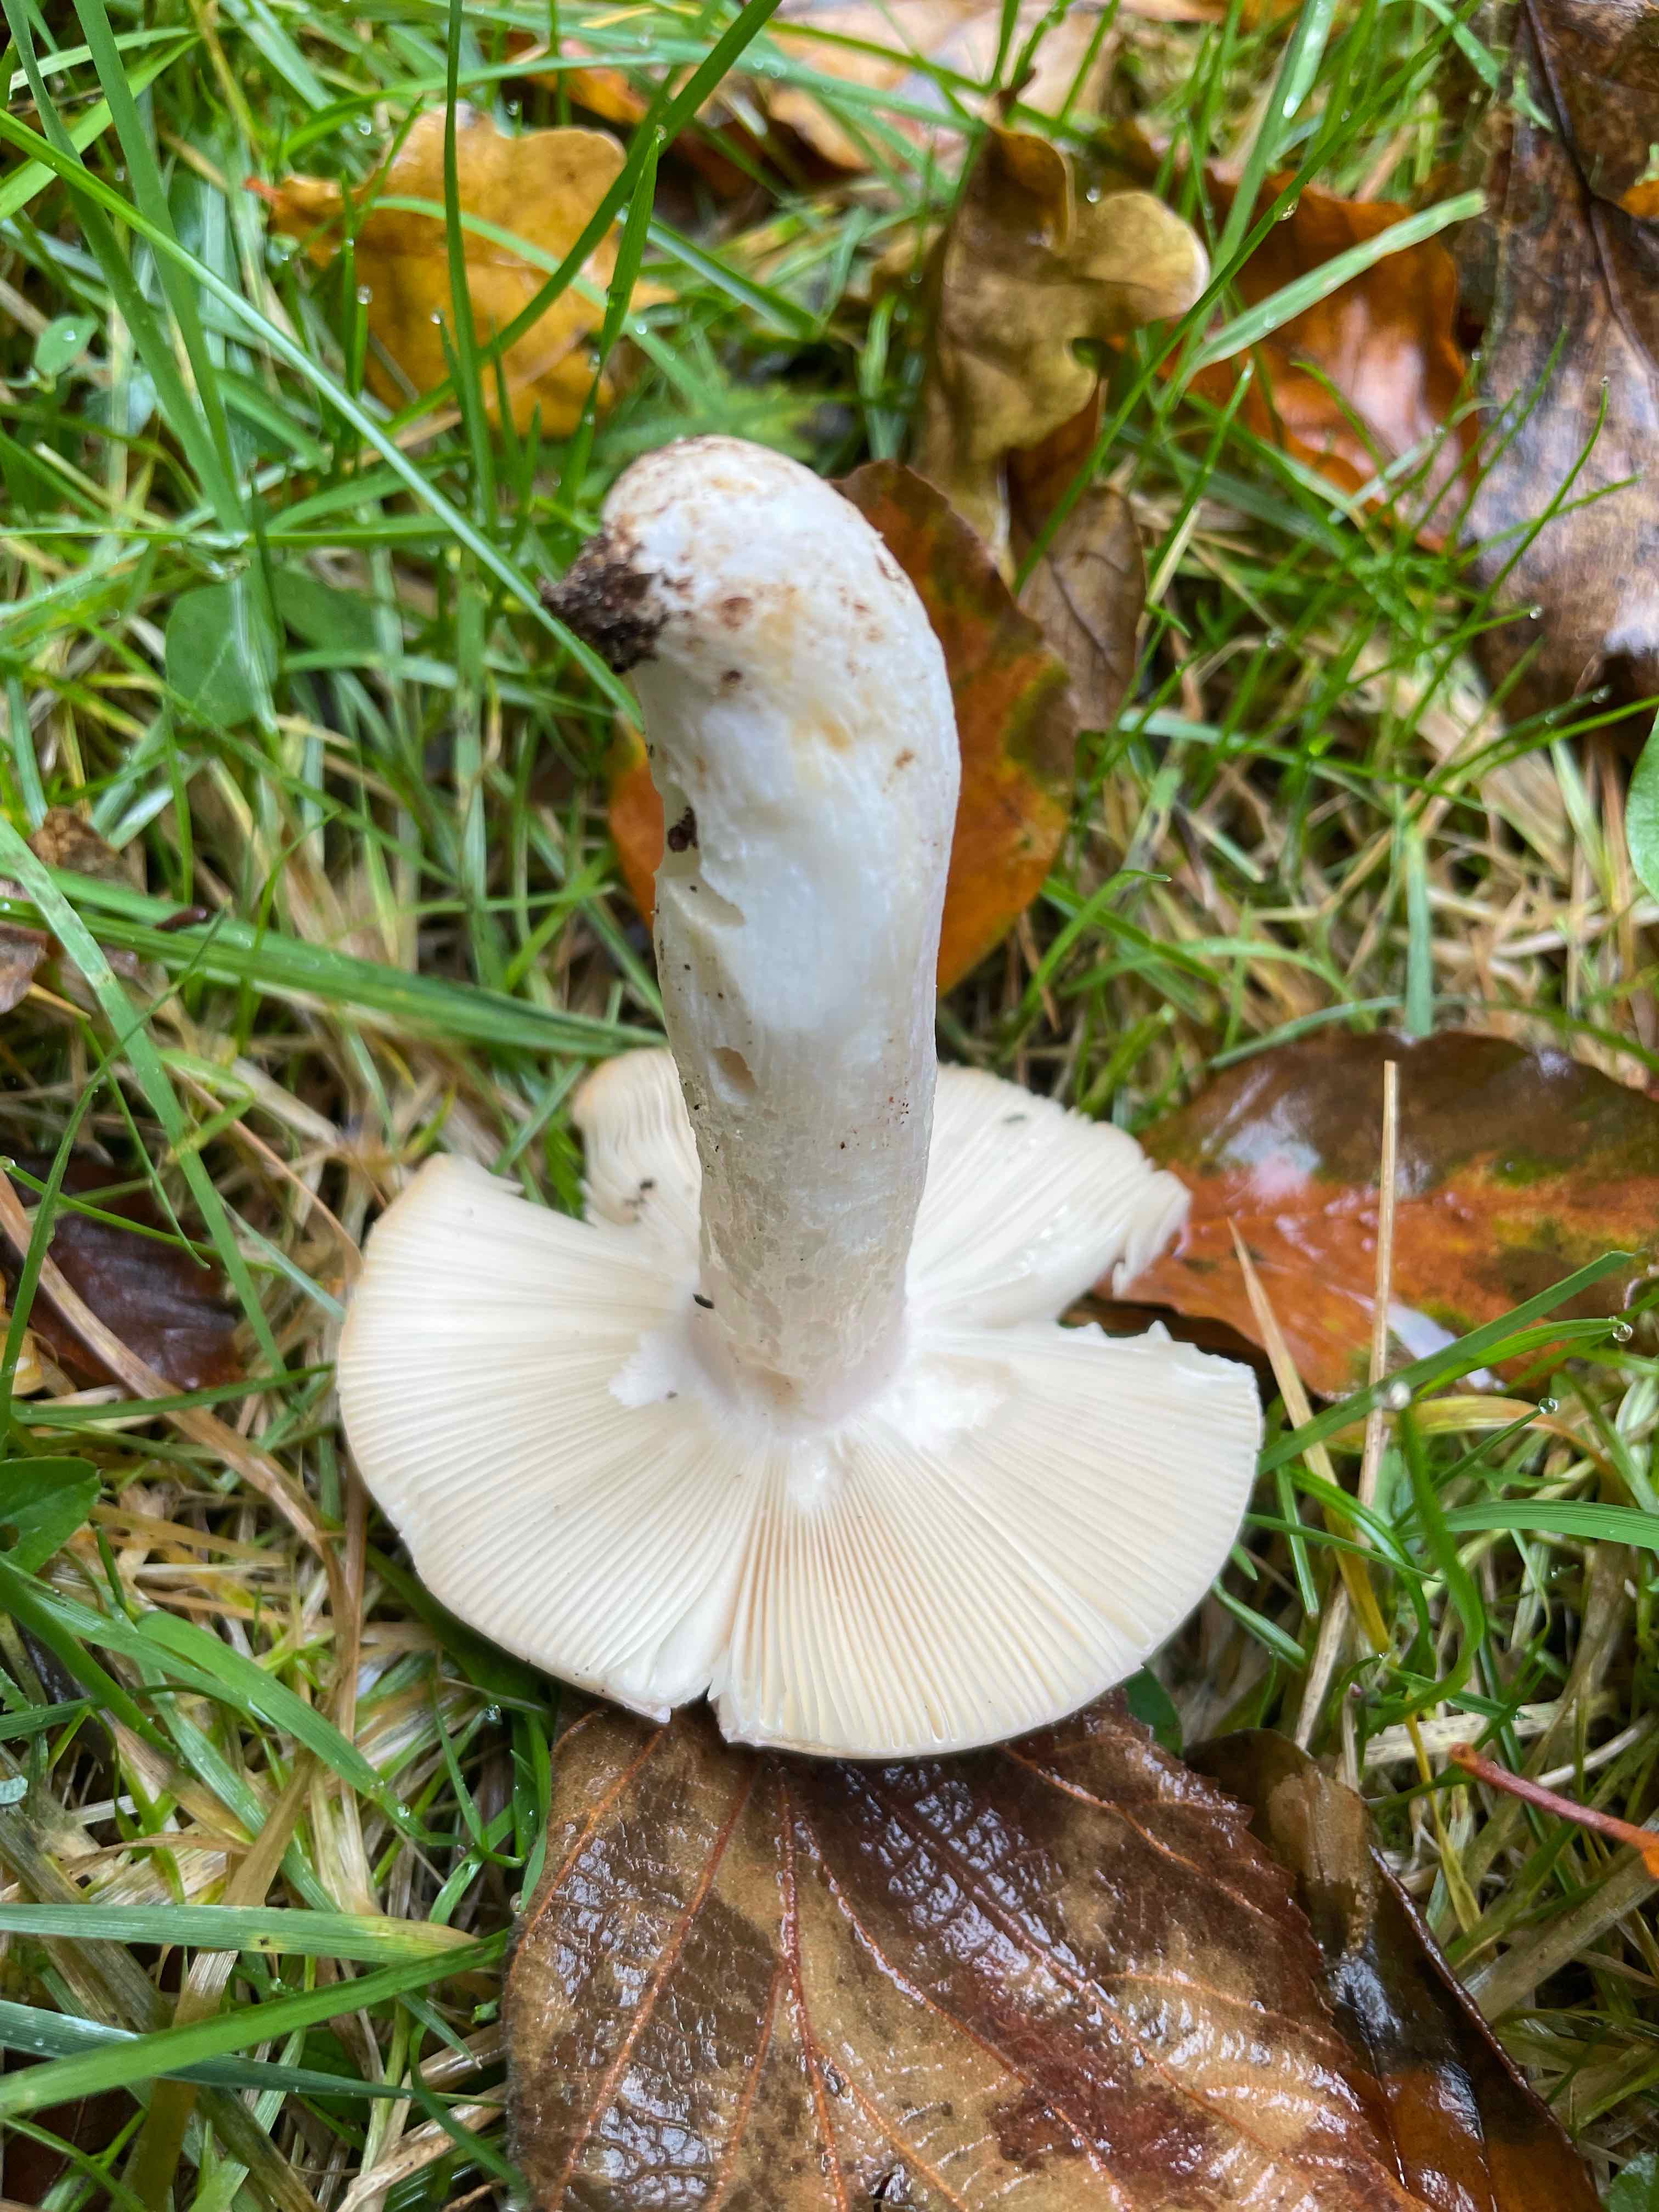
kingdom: Fungi
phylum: Basidiomycota
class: Agaricomycetes
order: Russulales
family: Russulaceae
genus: Russula
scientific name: Russula ionochlora
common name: violetgrøn skørhat
